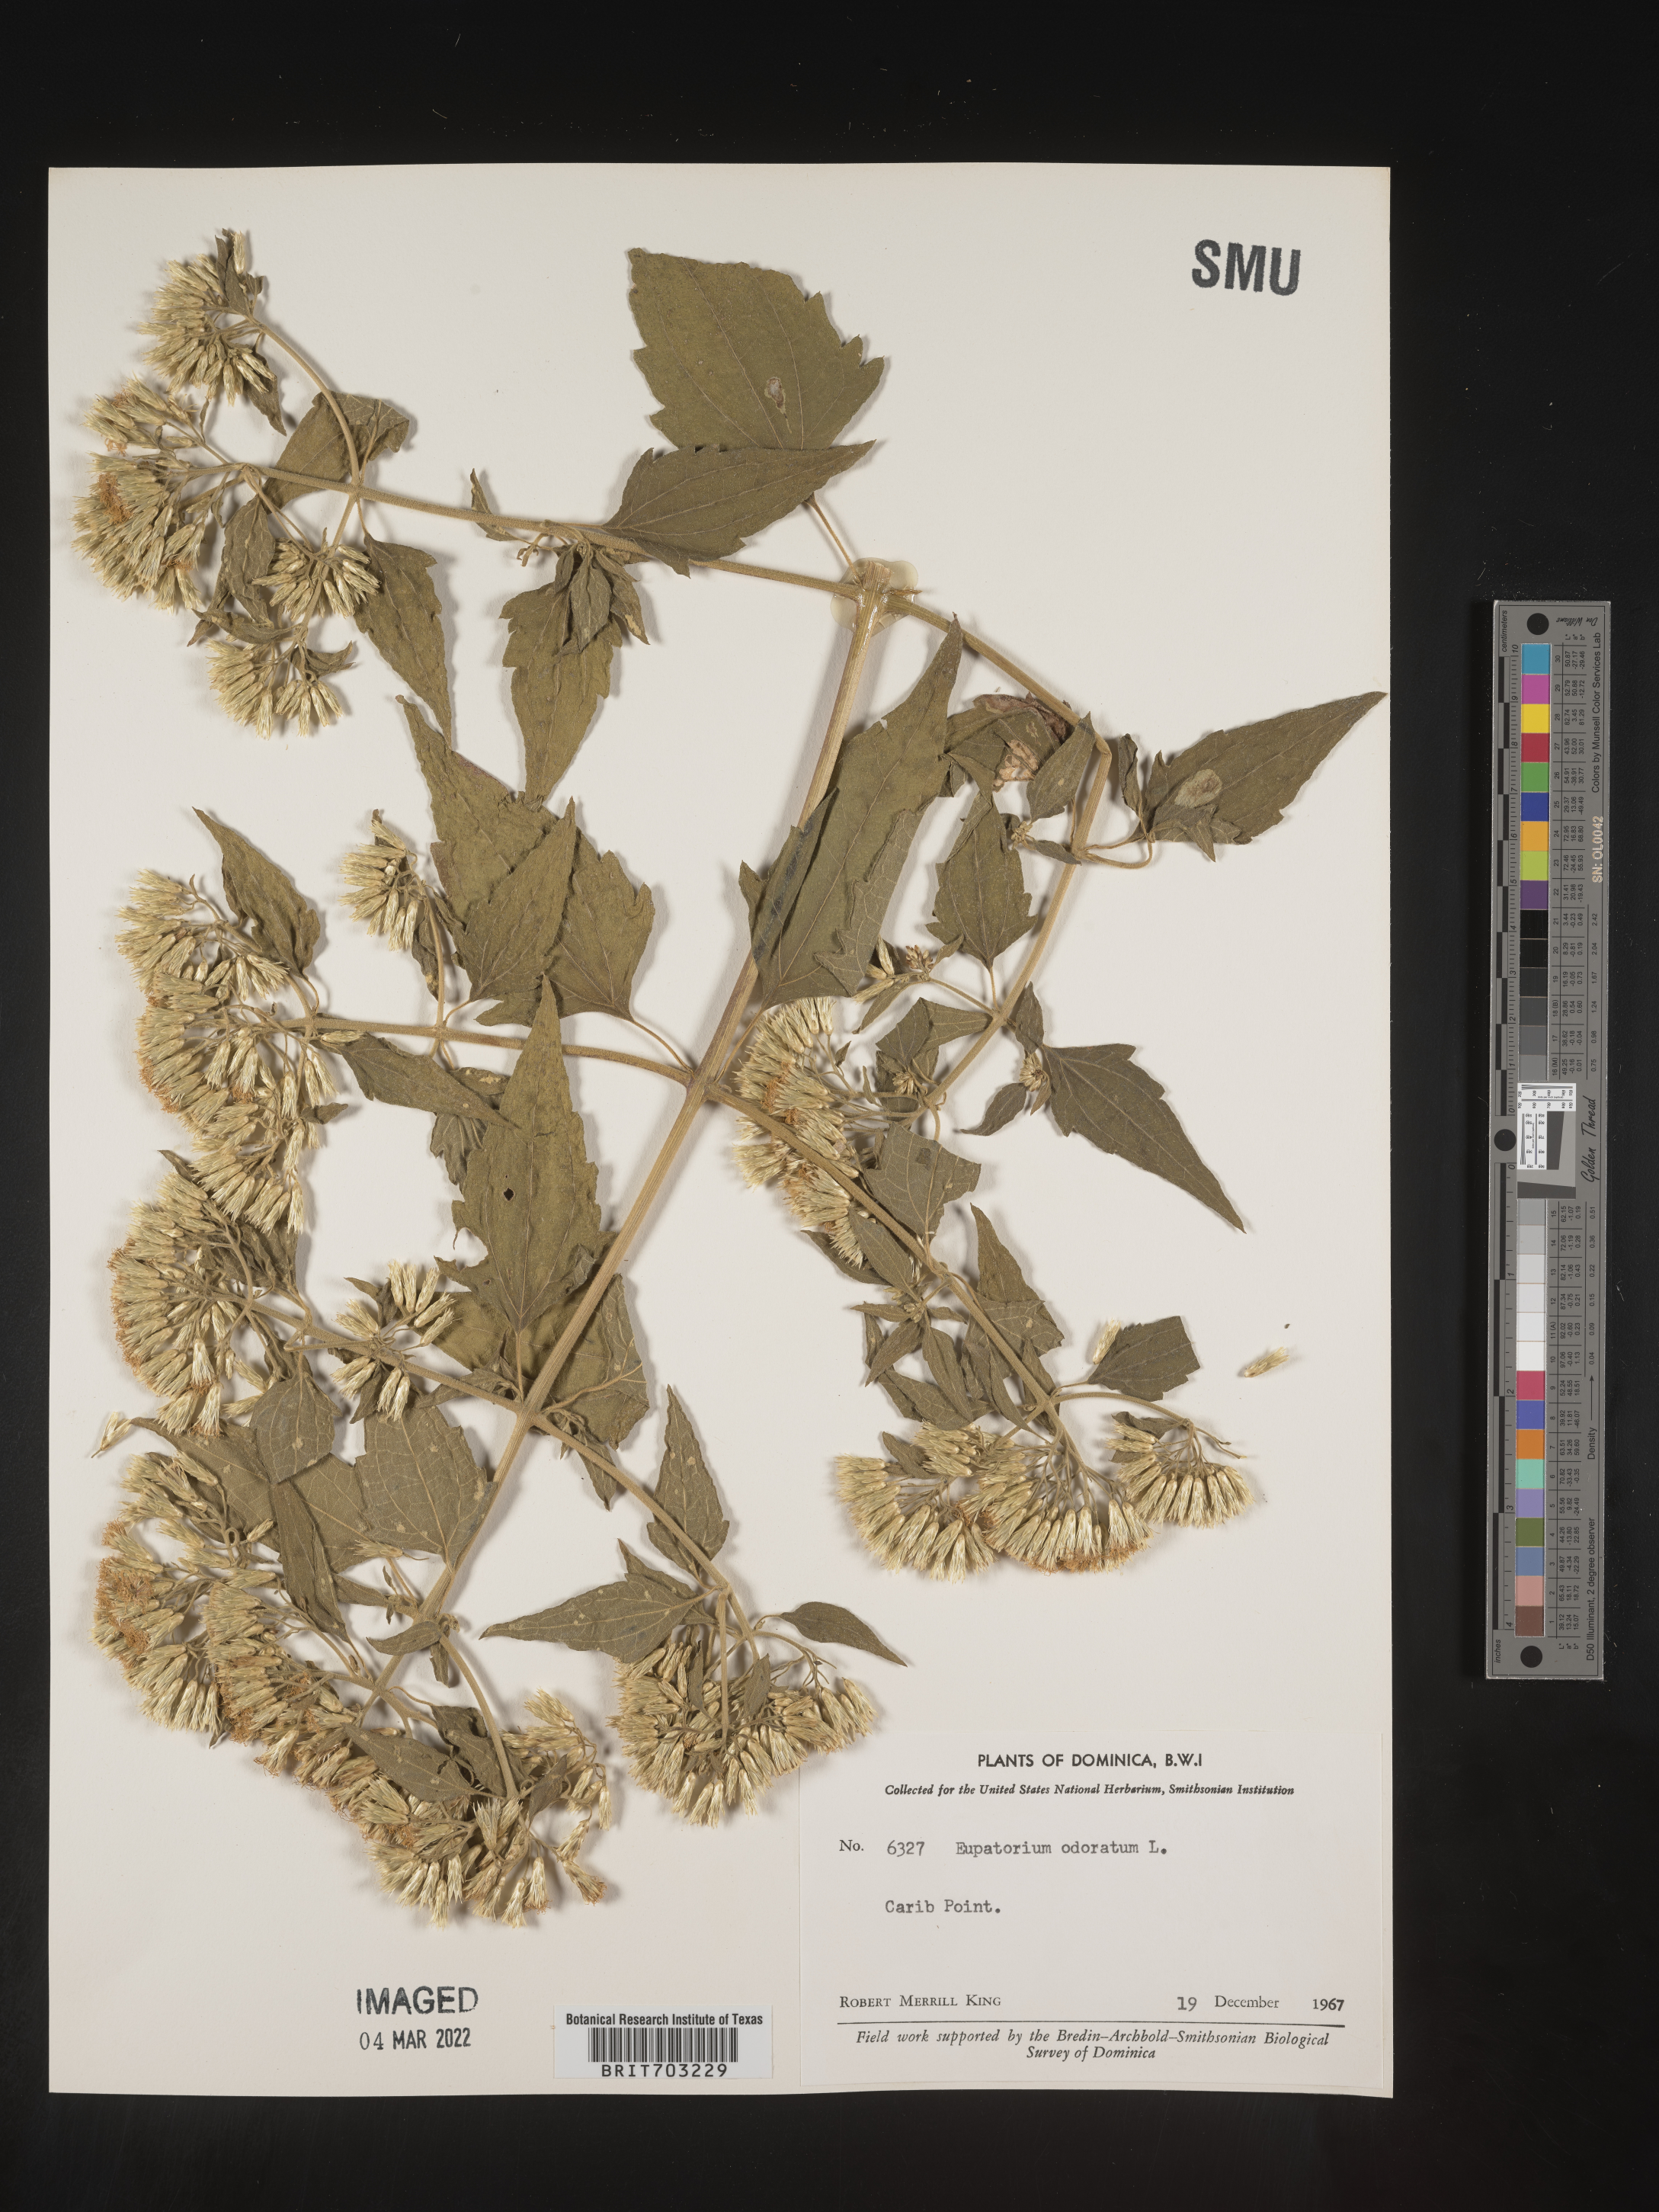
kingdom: Plantae
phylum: Tracheophyta
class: Magnoliopsida
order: Asterales
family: Asteraceae
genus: Eupatorium
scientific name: Eupatorium
